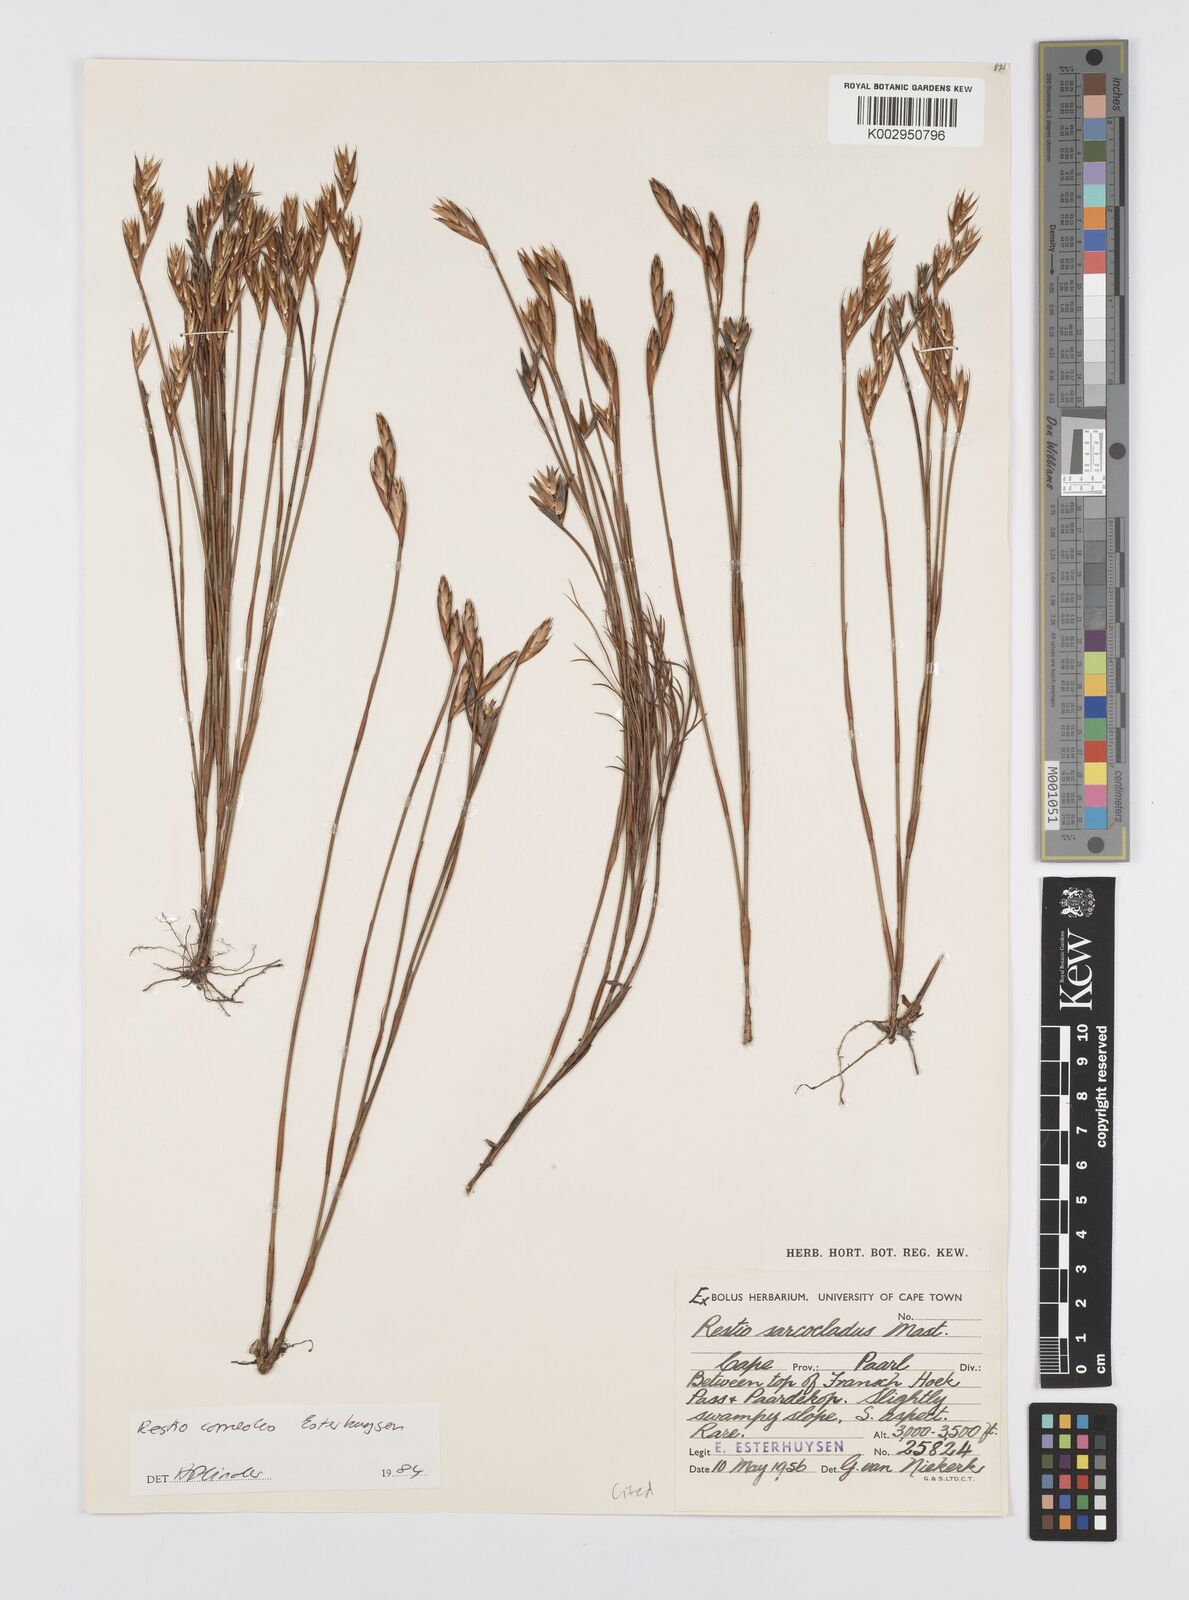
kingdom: Plantae
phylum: Tracheophyta
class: Liliopsida
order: Poales
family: Restionaceae
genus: Restio
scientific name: Restio corneolus
